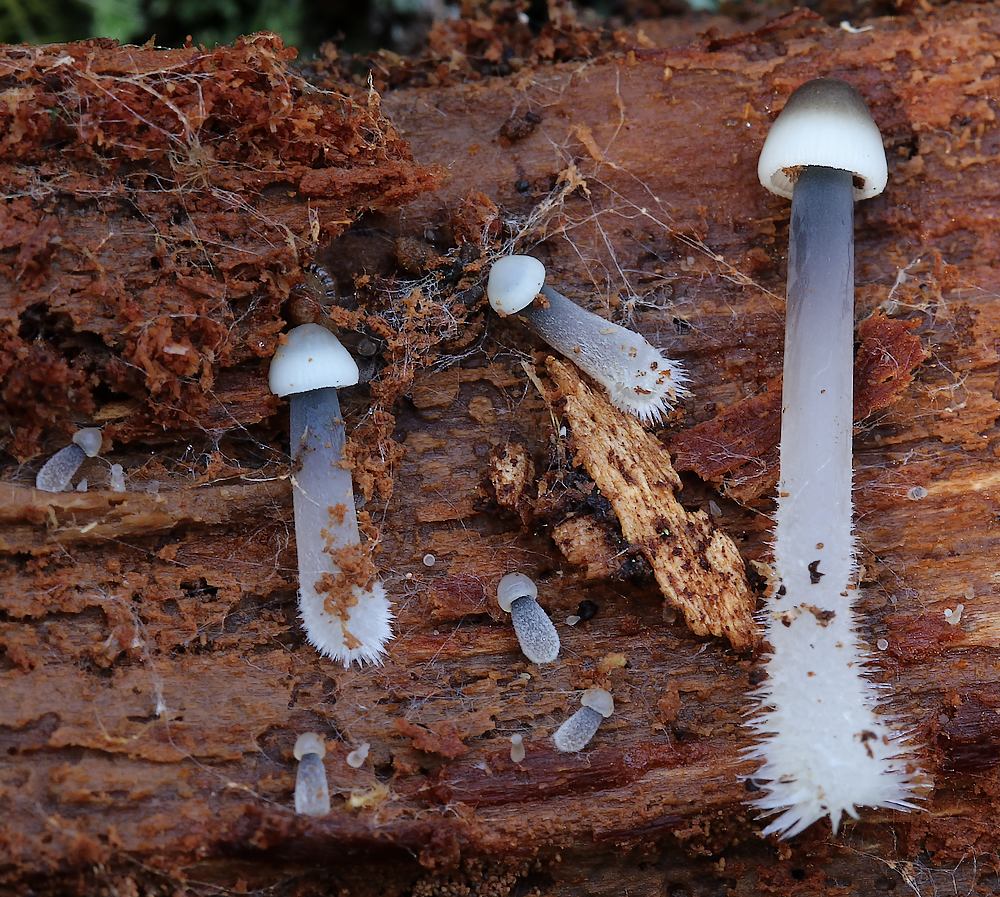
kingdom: Fungi
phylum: Basidiomycota
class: Agaricomycetes
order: Agaricales
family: Mycenaceae
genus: Mycena
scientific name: Mycena
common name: huesvamp
